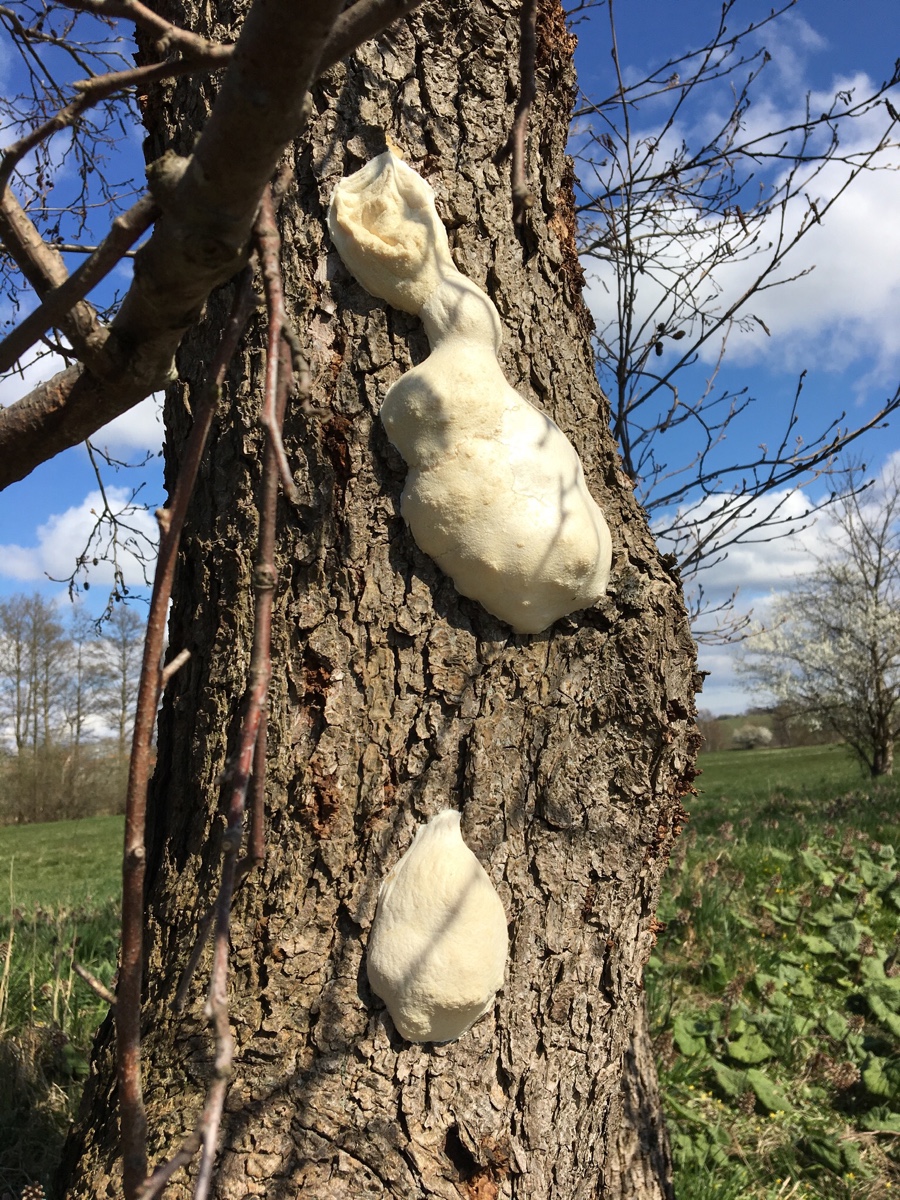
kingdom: Protozoa
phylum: Mycetozoa
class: Myxomycetes
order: Cribrariales
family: Tubiferaceae
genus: Reticularia
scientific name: Reticularia lycoperdon
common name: skinnende støvpude
